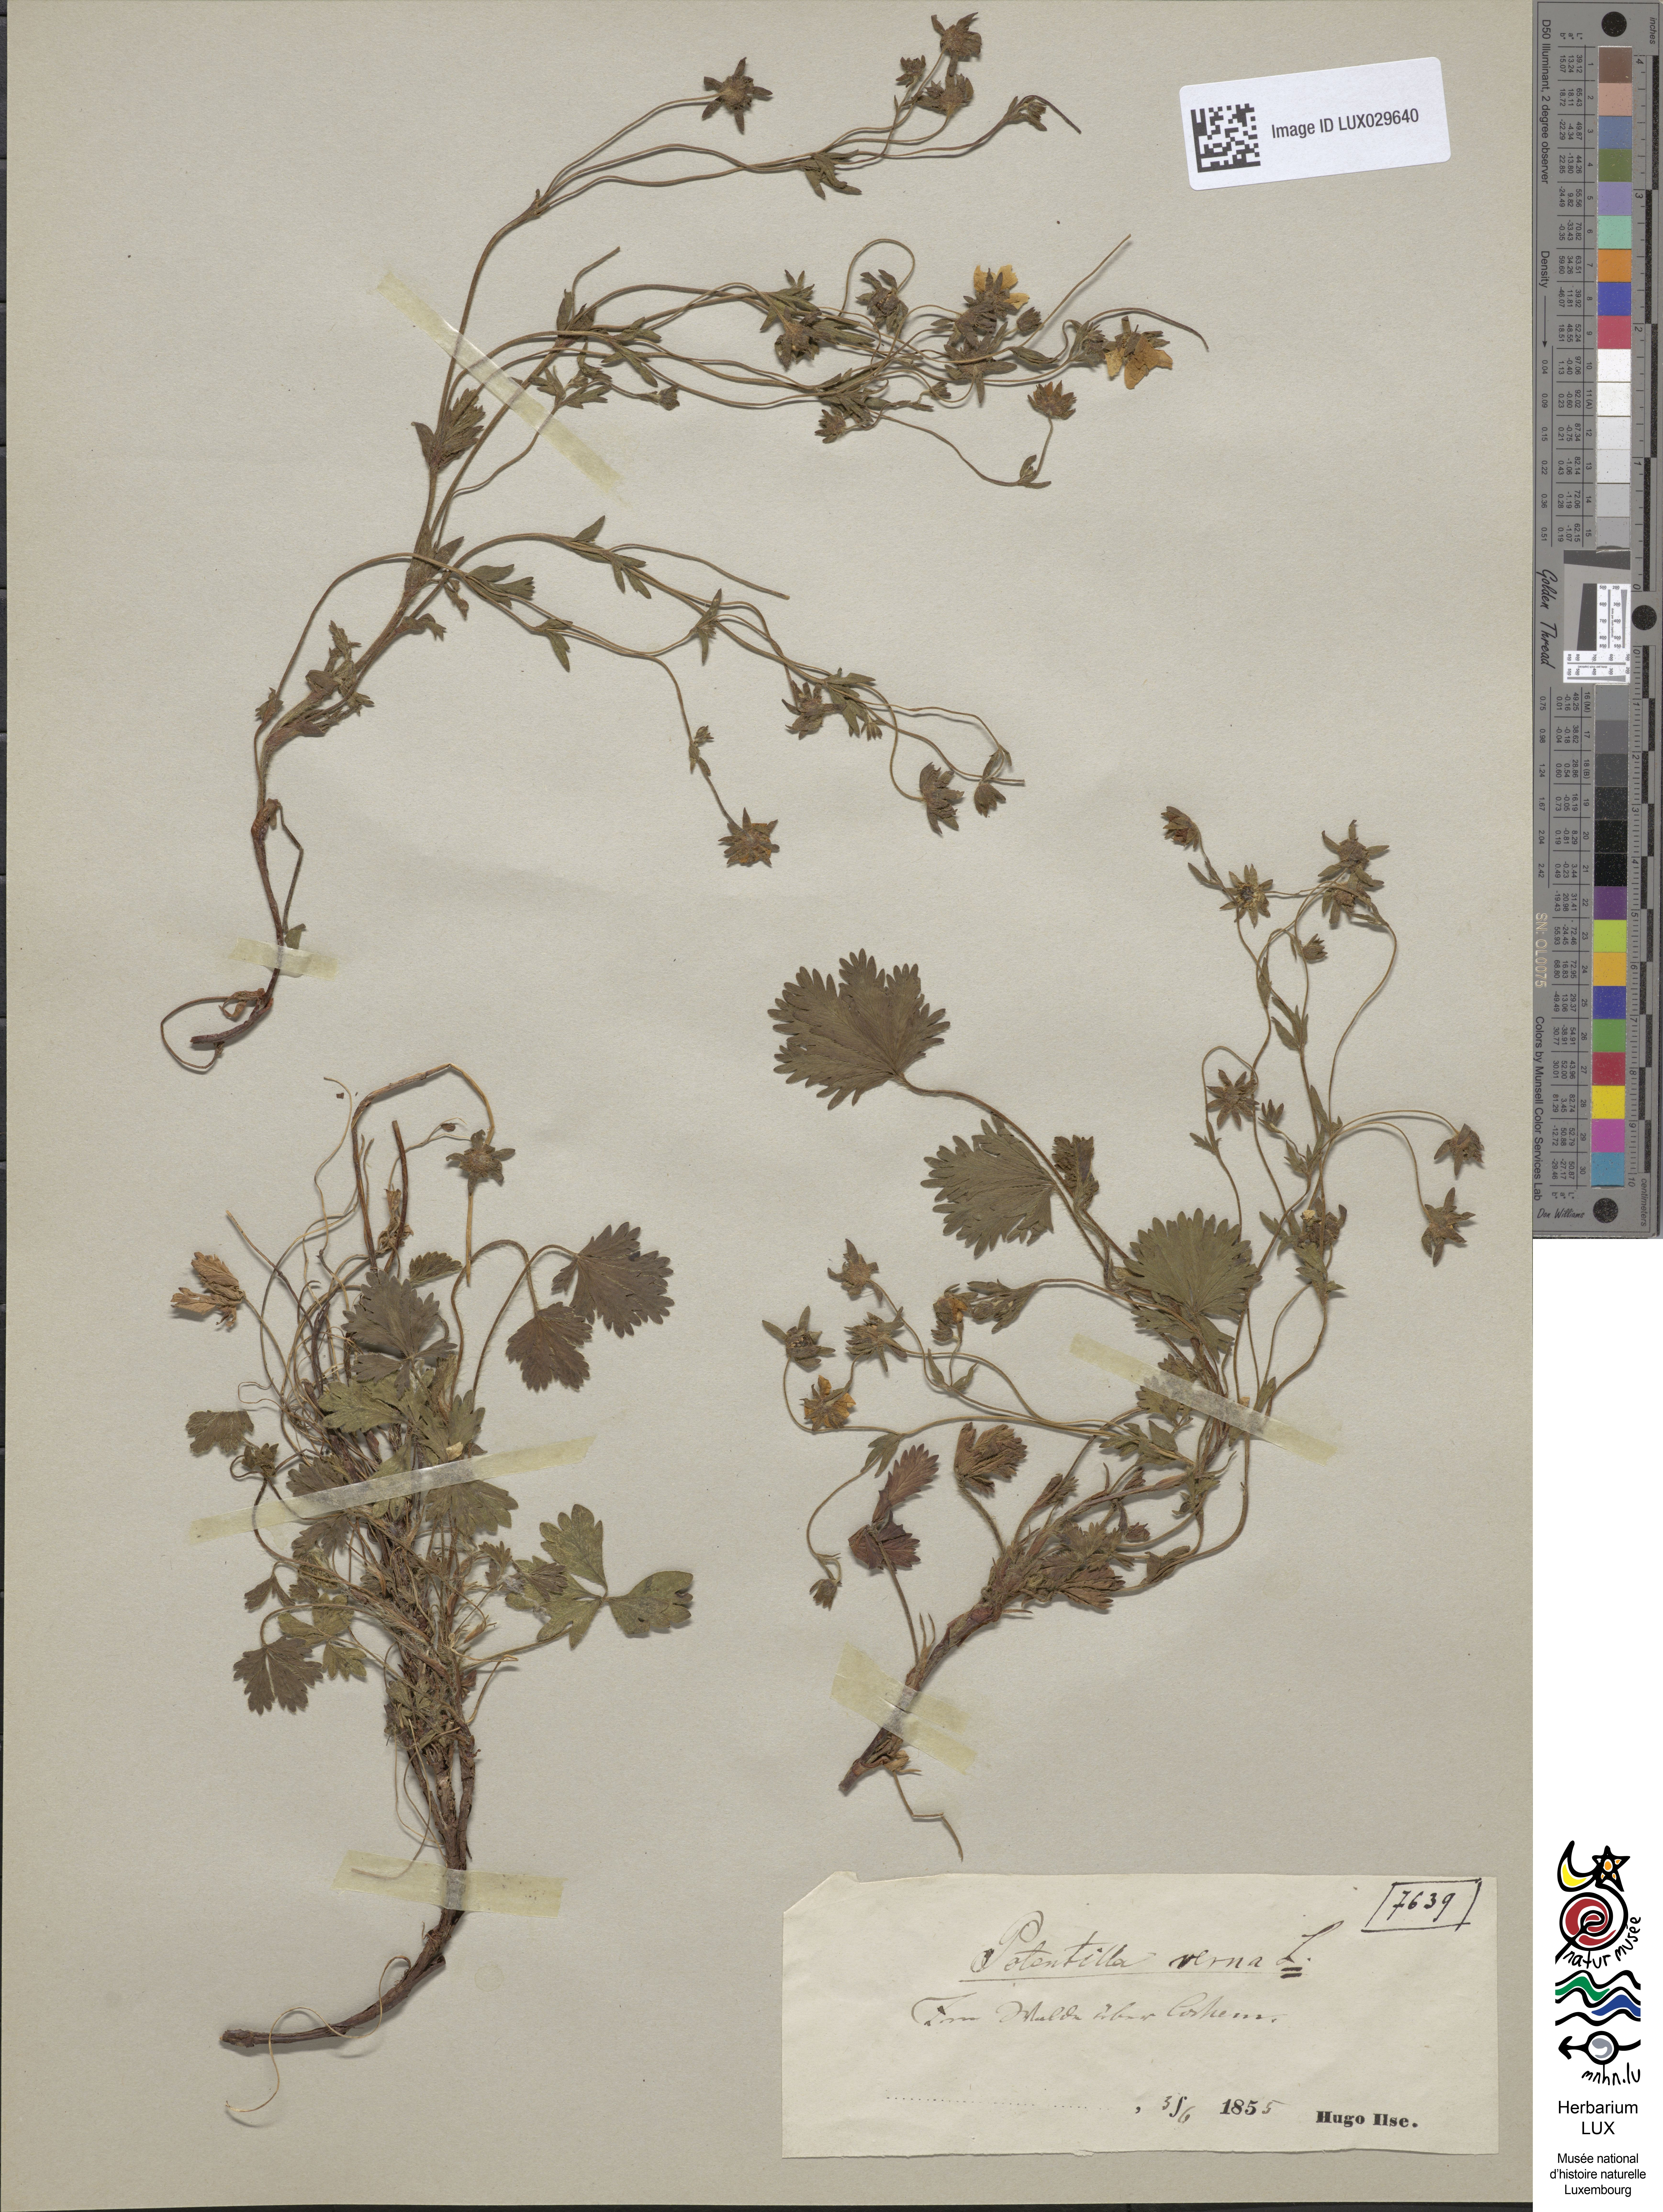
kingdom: Plantae
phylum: Tracheophyta
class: Magnoliopsida
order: Rosales
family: Rosaceae
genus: Potentilla
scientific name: Potentilla verna
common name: Spring cinquefoil
